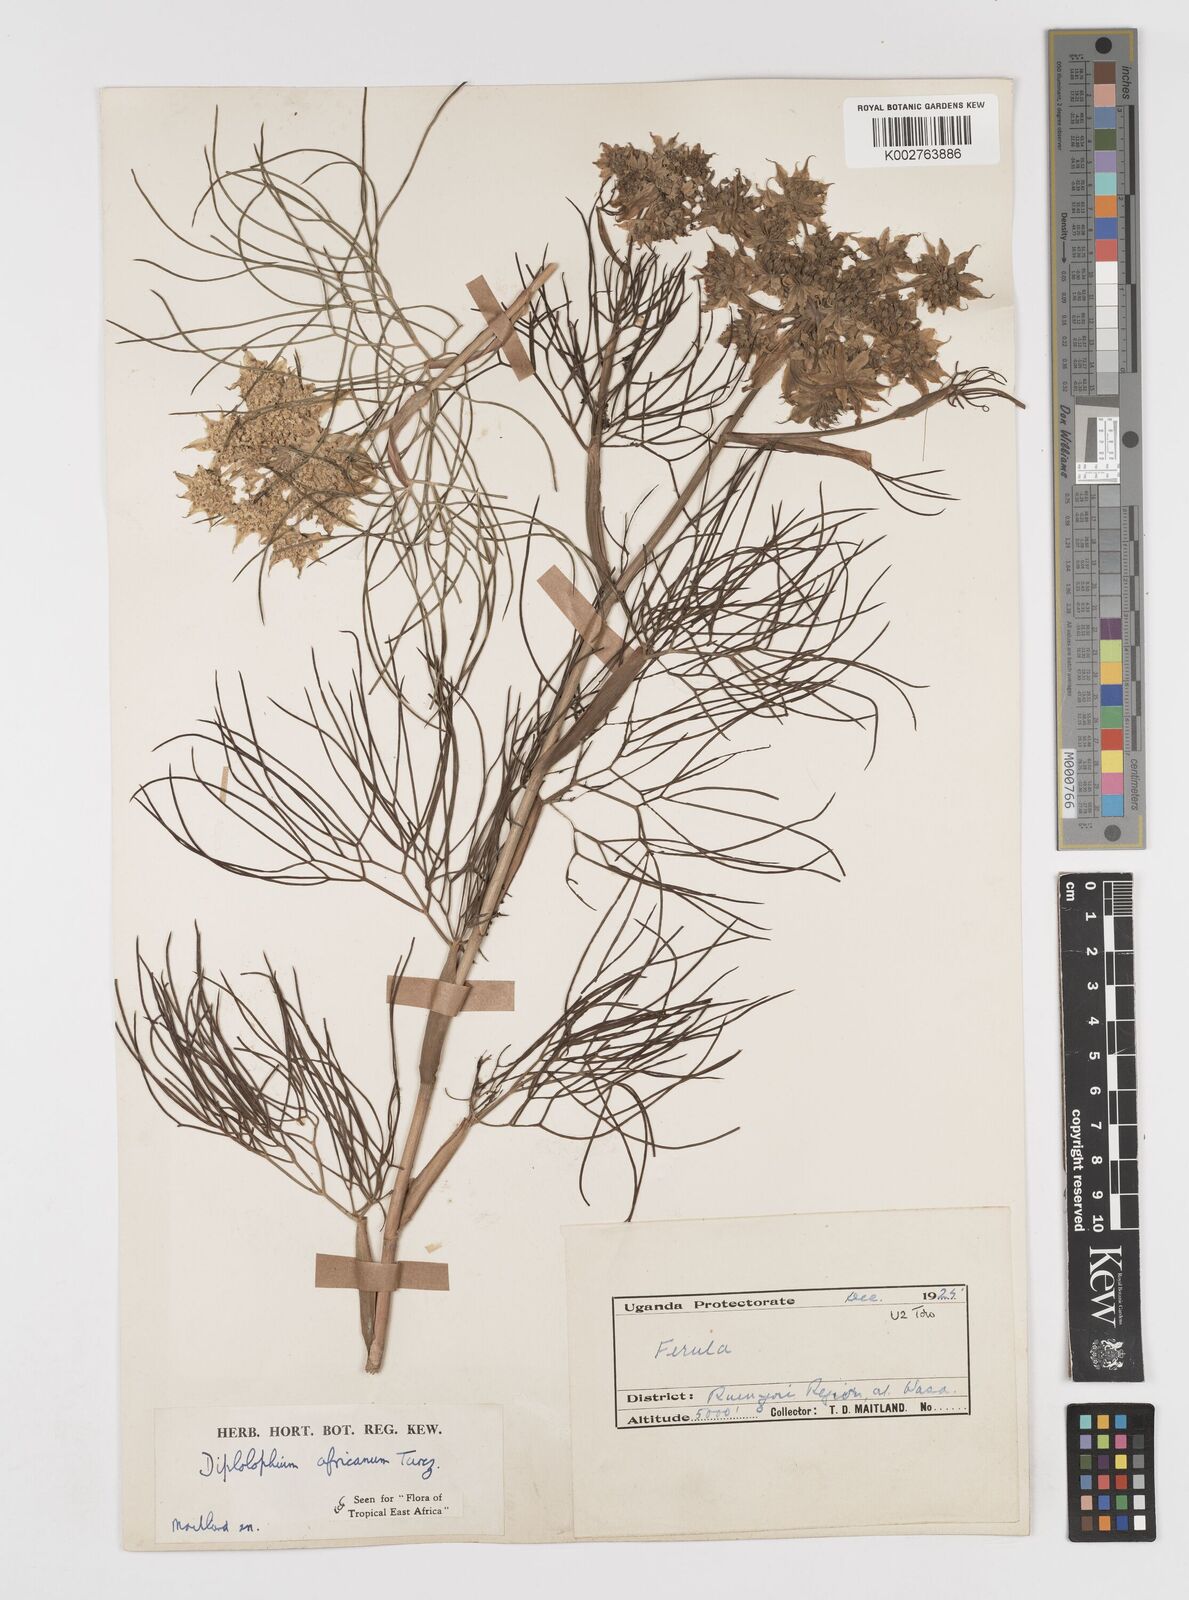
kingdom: Plantae
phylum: Tracheophyta
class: Magnoliopsida
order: Apiales
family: Apiaceae
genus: Diplolophium
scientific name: Diplolophium africanum
